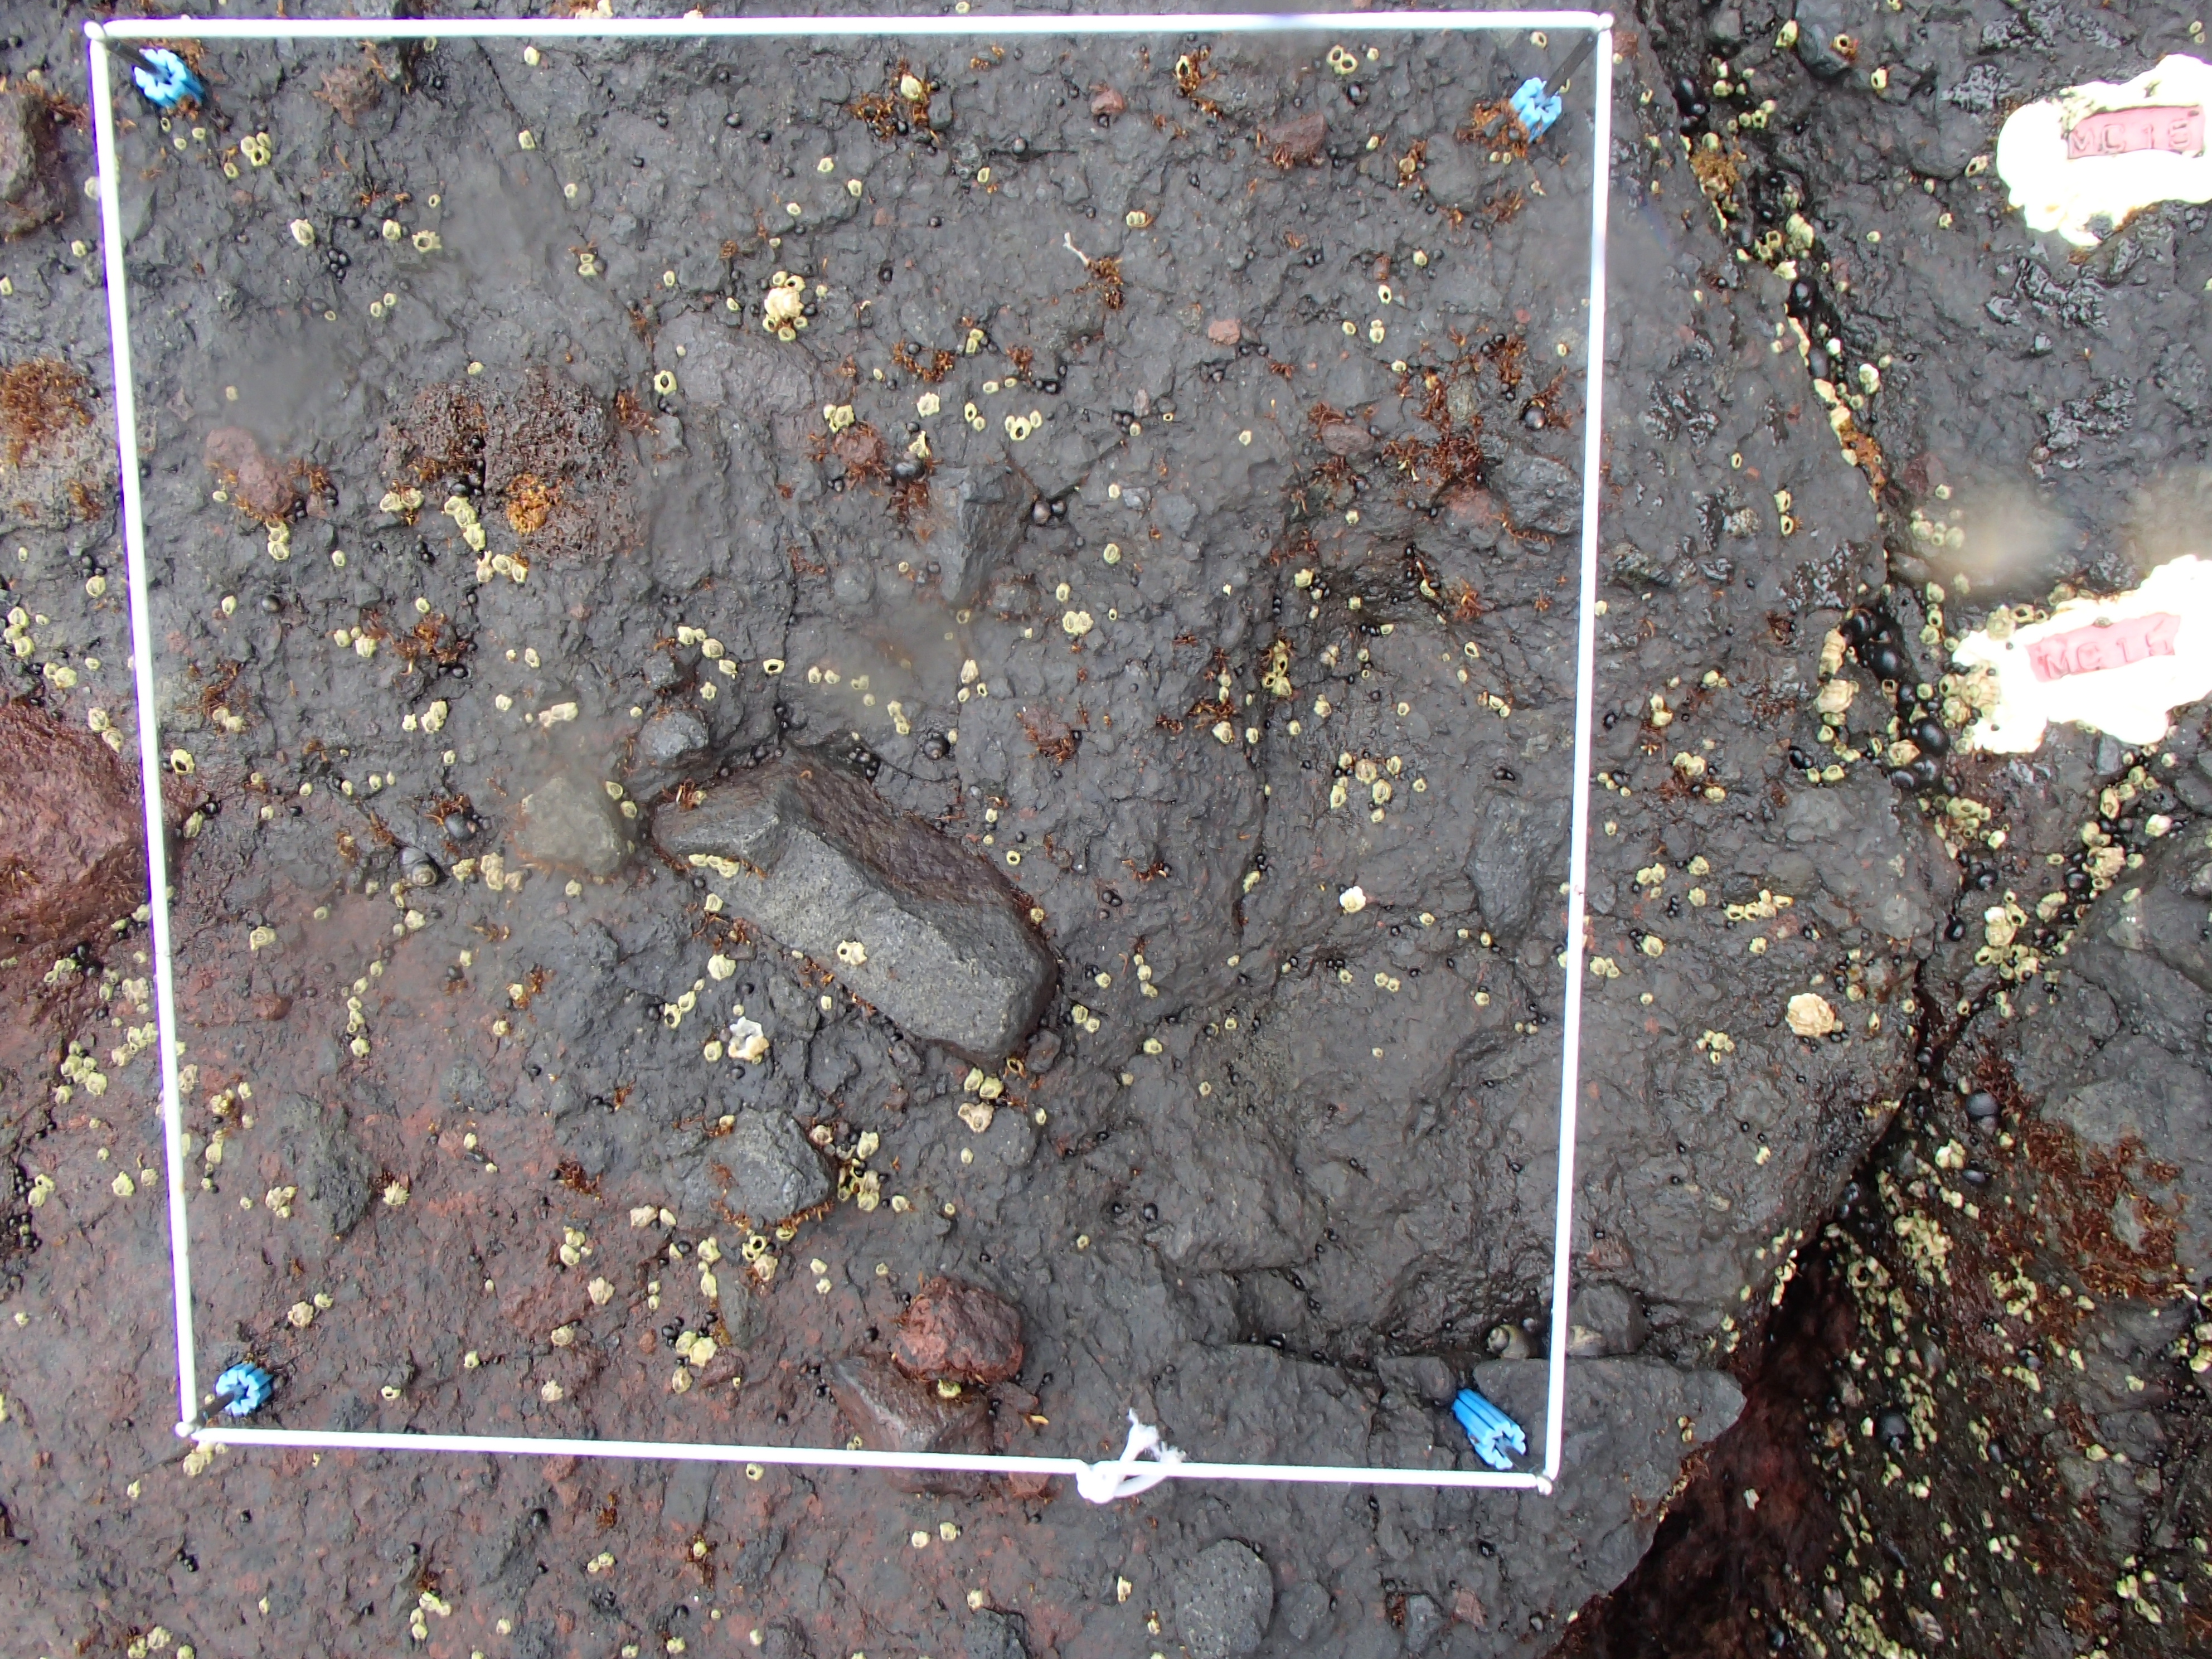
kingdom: Chromista
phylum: Ochrophyta
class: Phaeophyceae
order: Scytosiphonales
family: Scytosiphonaceae
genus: Analipus
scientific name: Analipus japonicus
